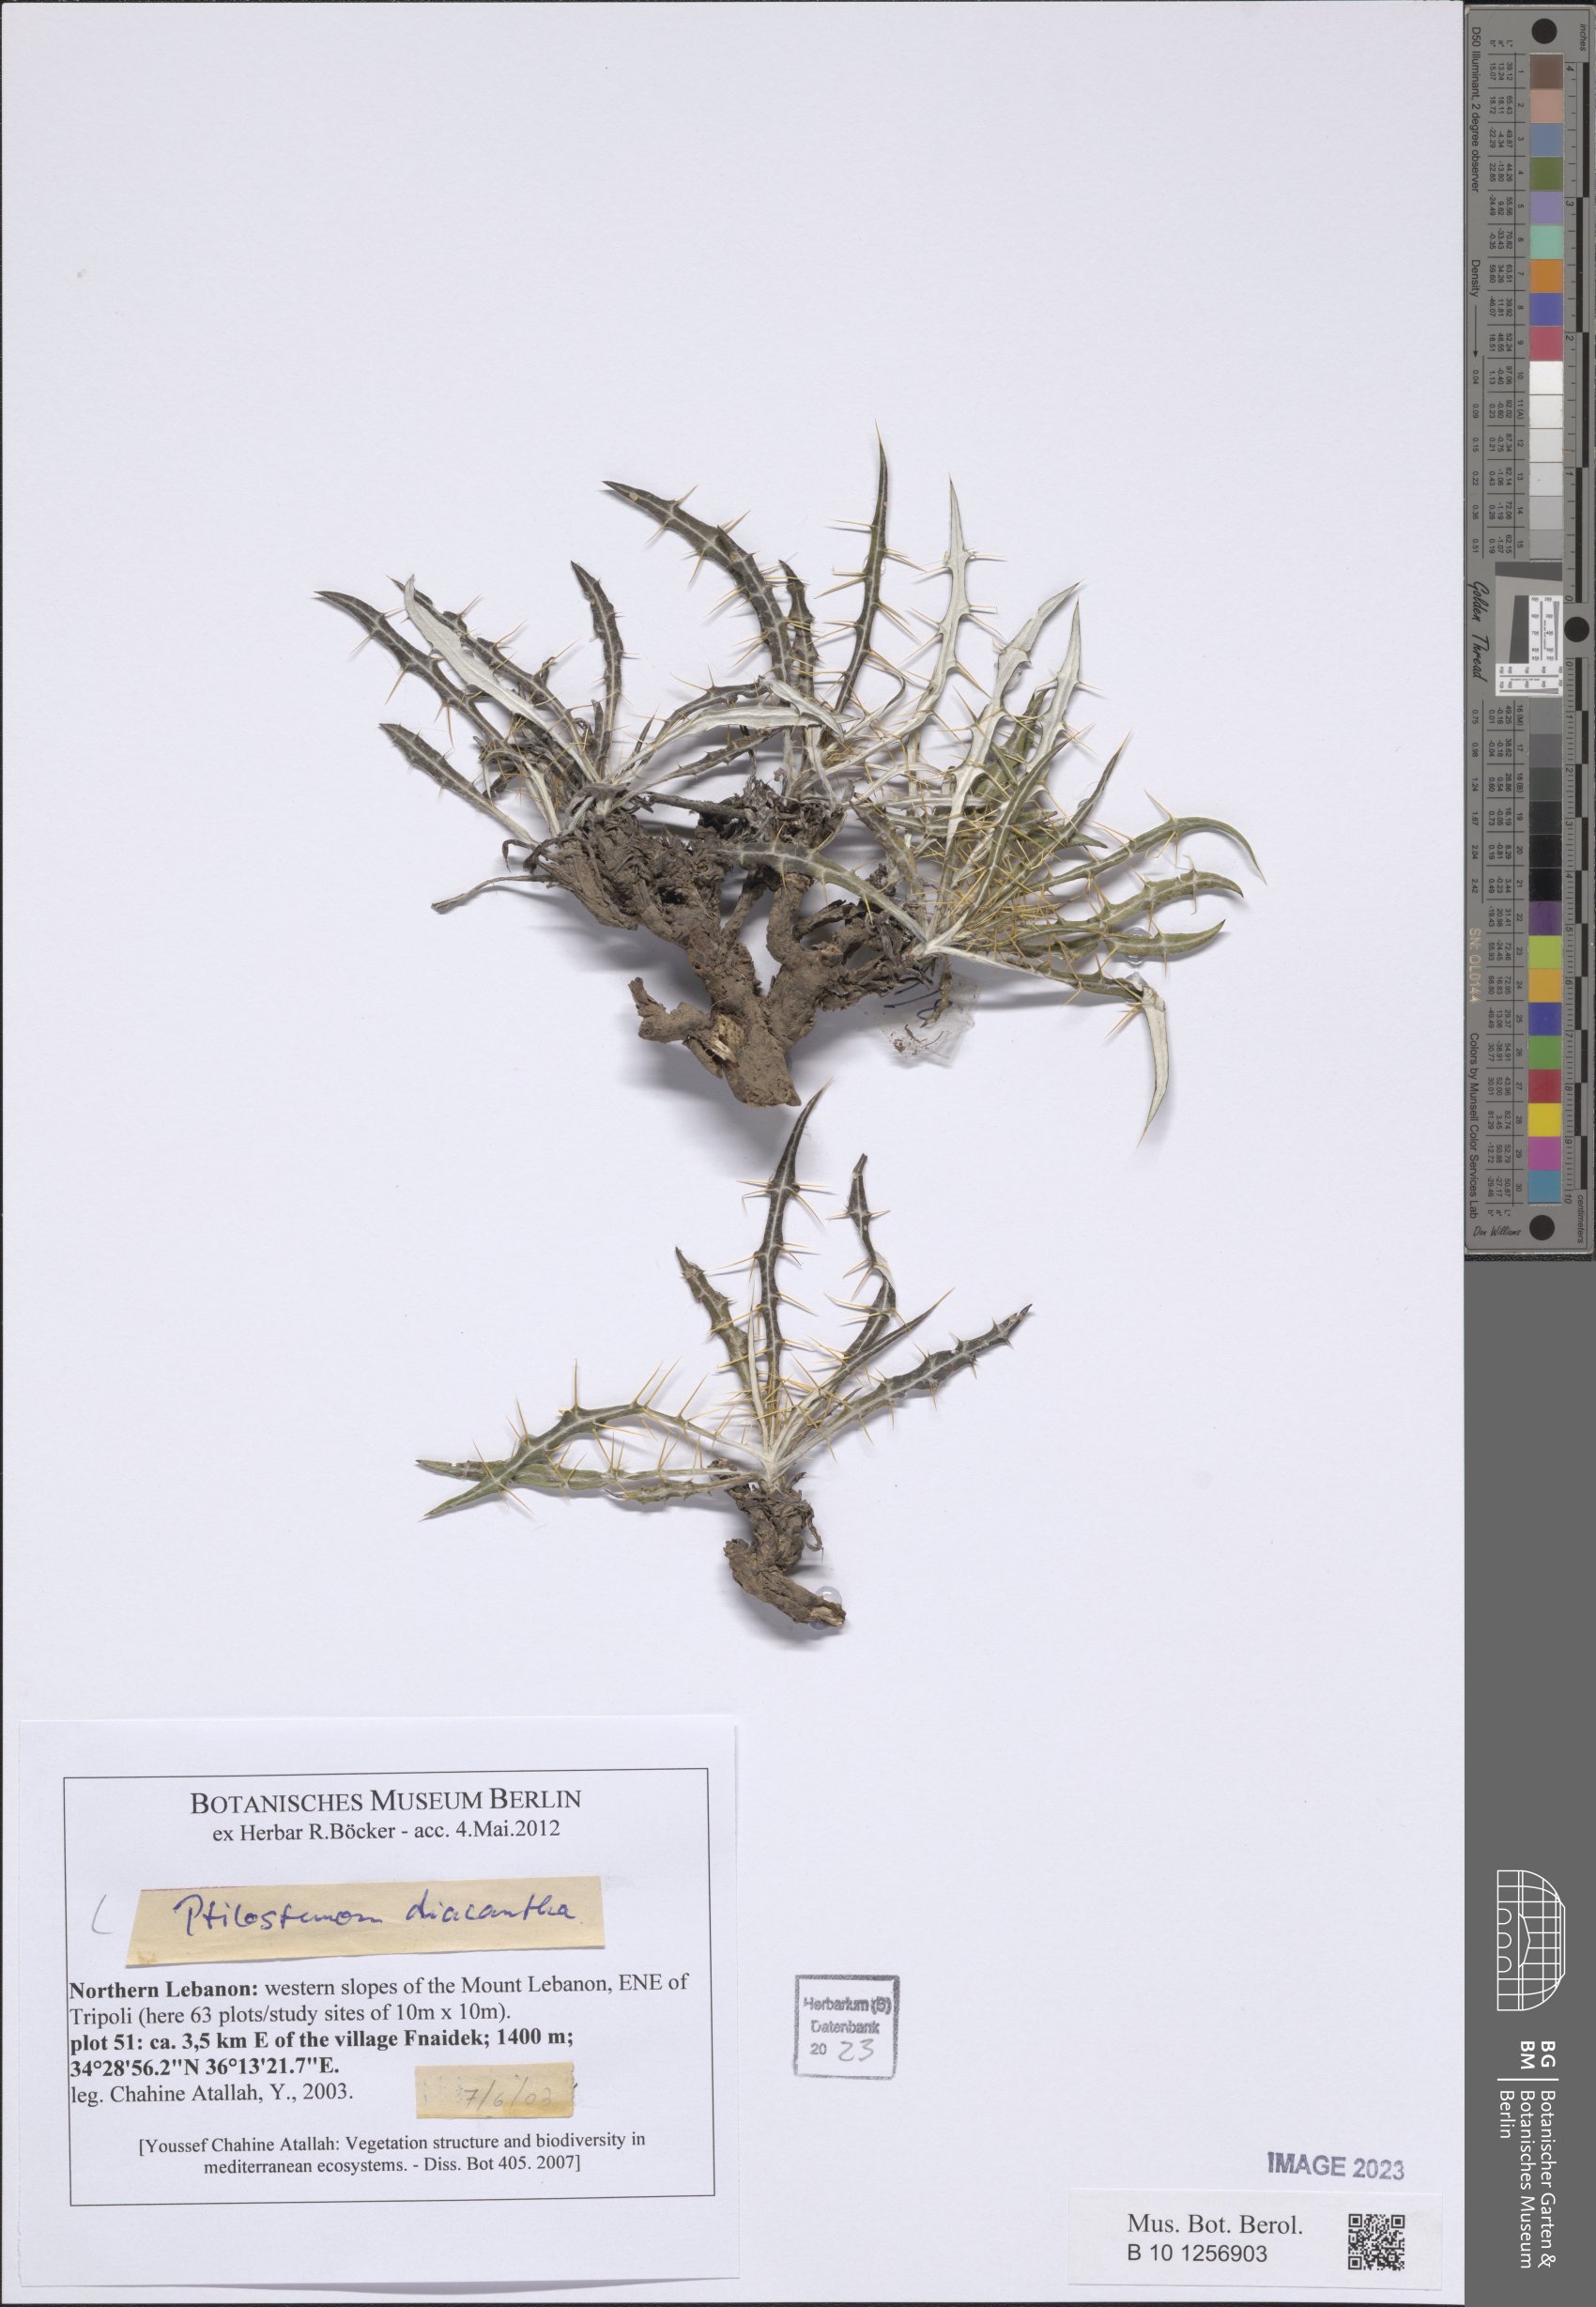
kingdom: Plantae
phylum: Tracheophyta
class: Magnoliopsida
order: Asterales
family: Asteraceae
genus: Ptilostemon
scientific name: Ptilostemon diacanthus
